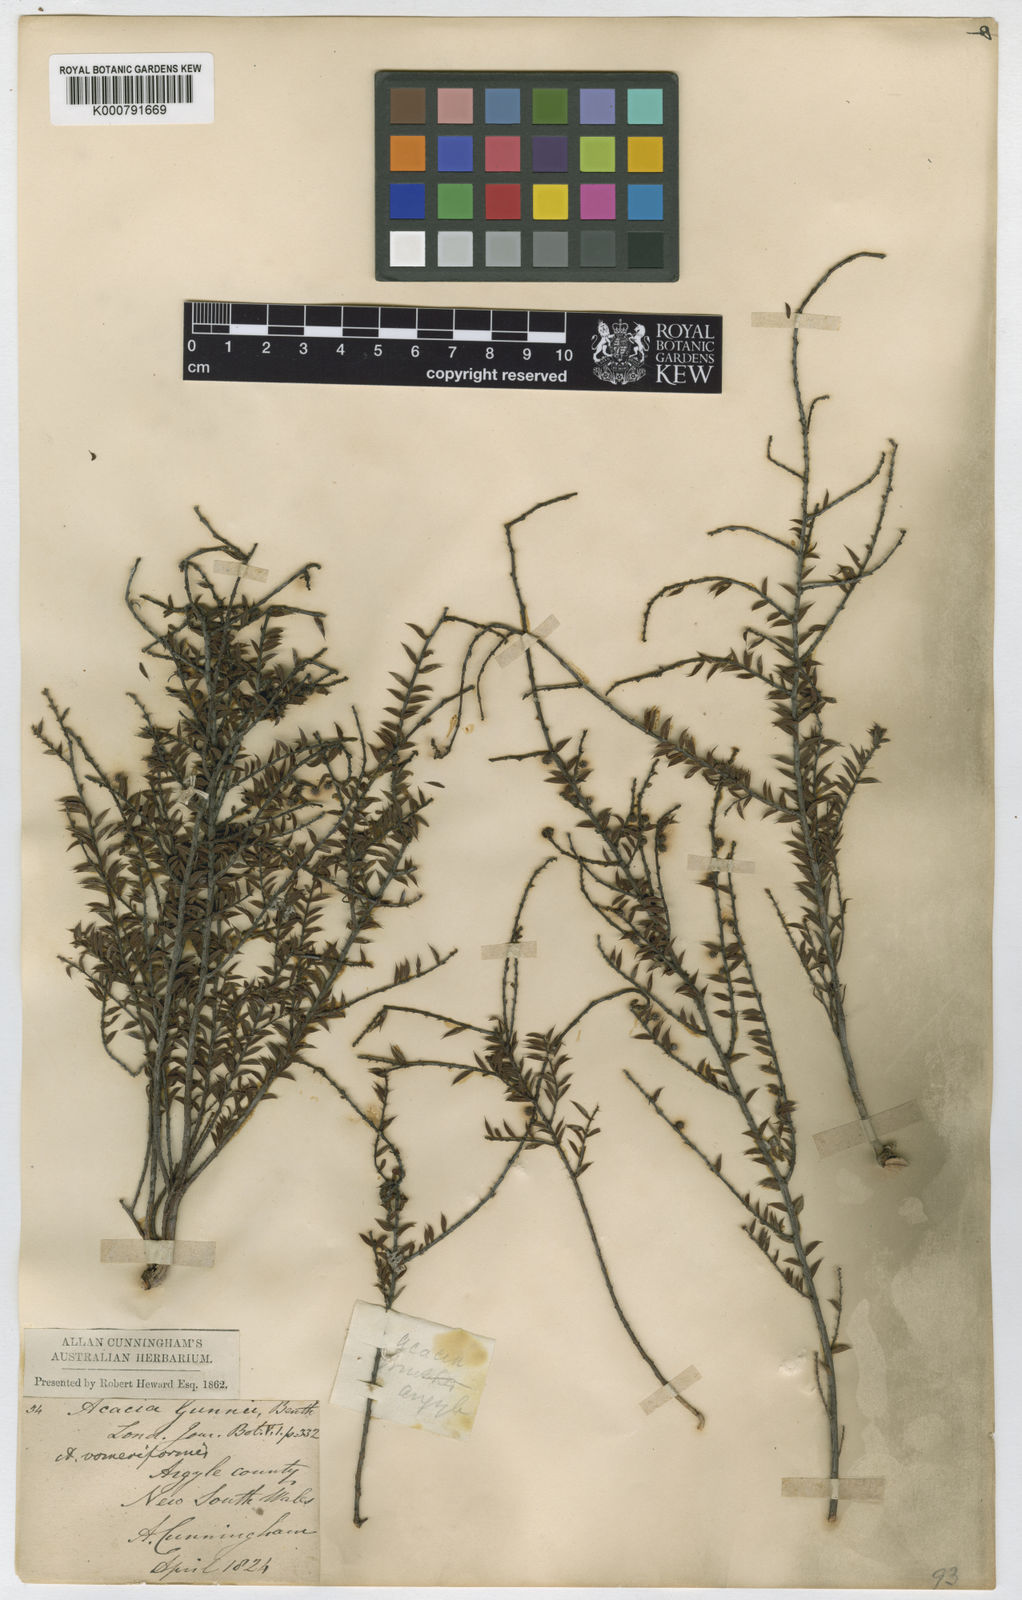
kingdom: Plantae
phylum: Tracheophyta
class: Magnoliopsida
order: Fabales
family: Fabaceae
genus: Acacia
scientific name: Acacia gunnii
